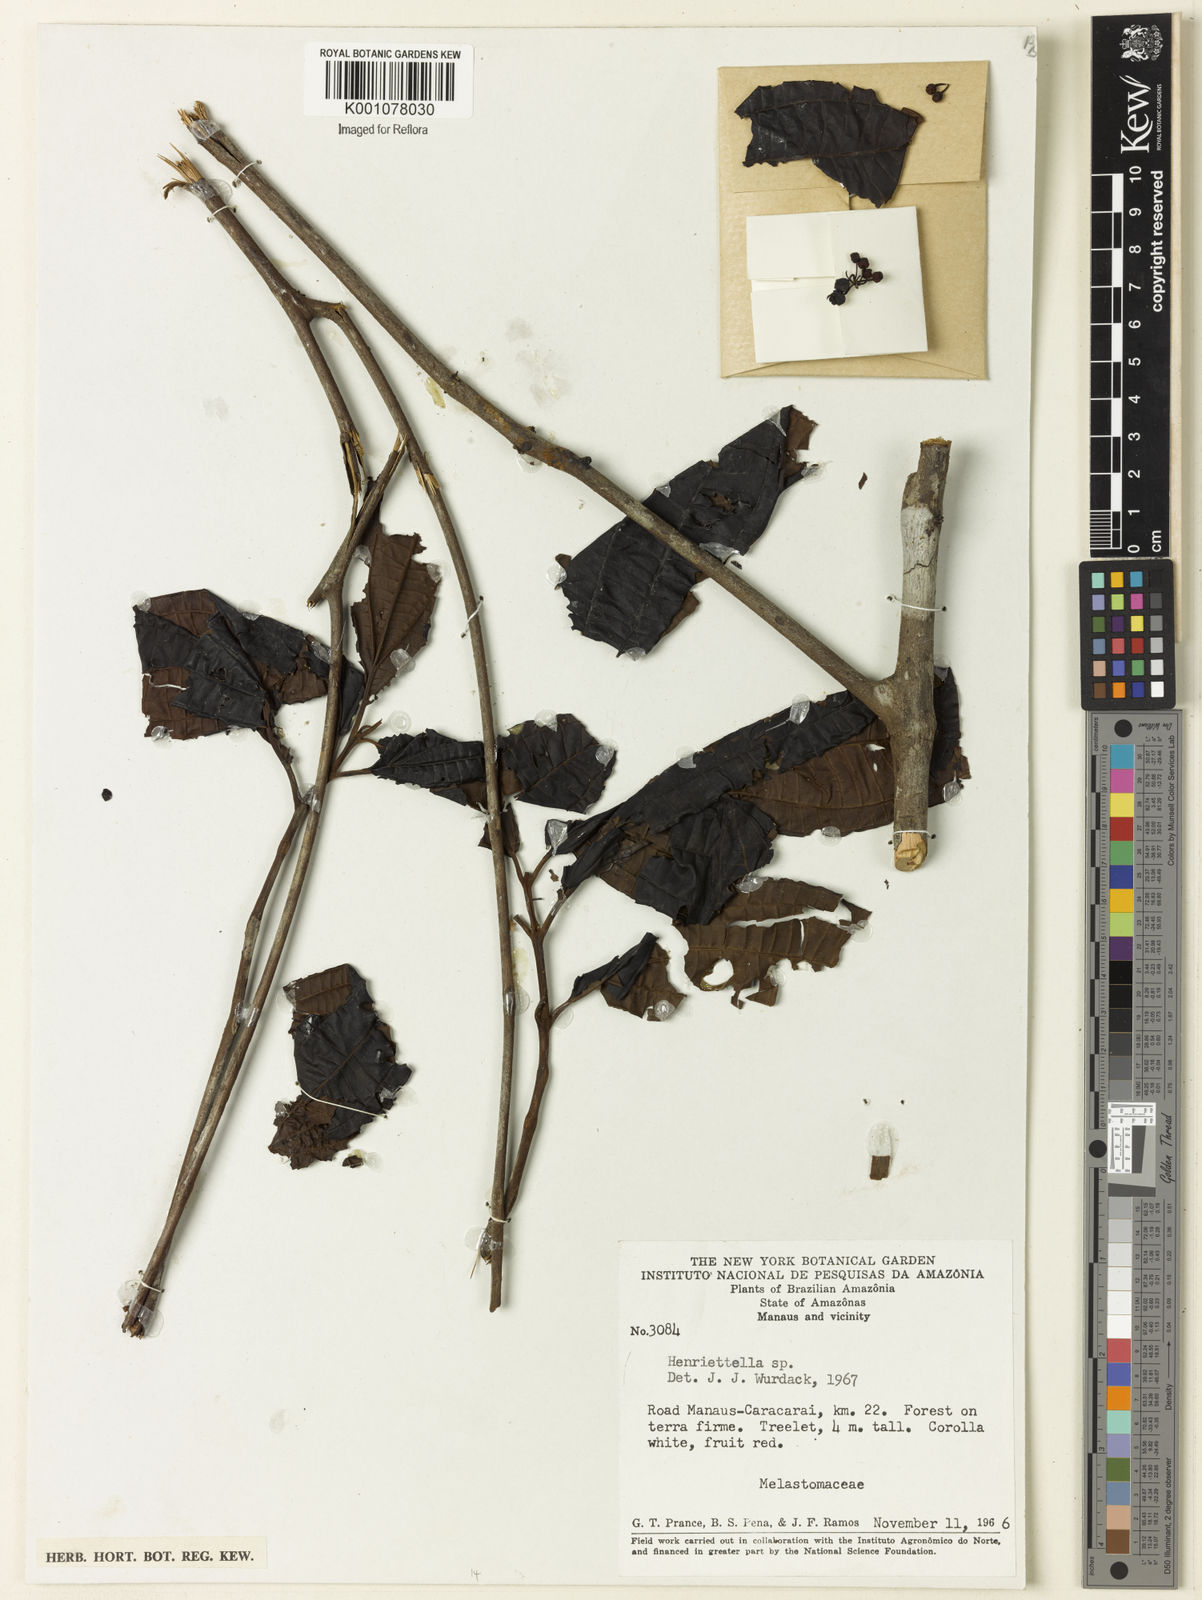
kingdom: Plantae
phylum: Tracheophyta
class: Magnoliopsida
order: Myrtales
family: Melastomataceae
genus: Henriettea
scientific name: Henriettea
